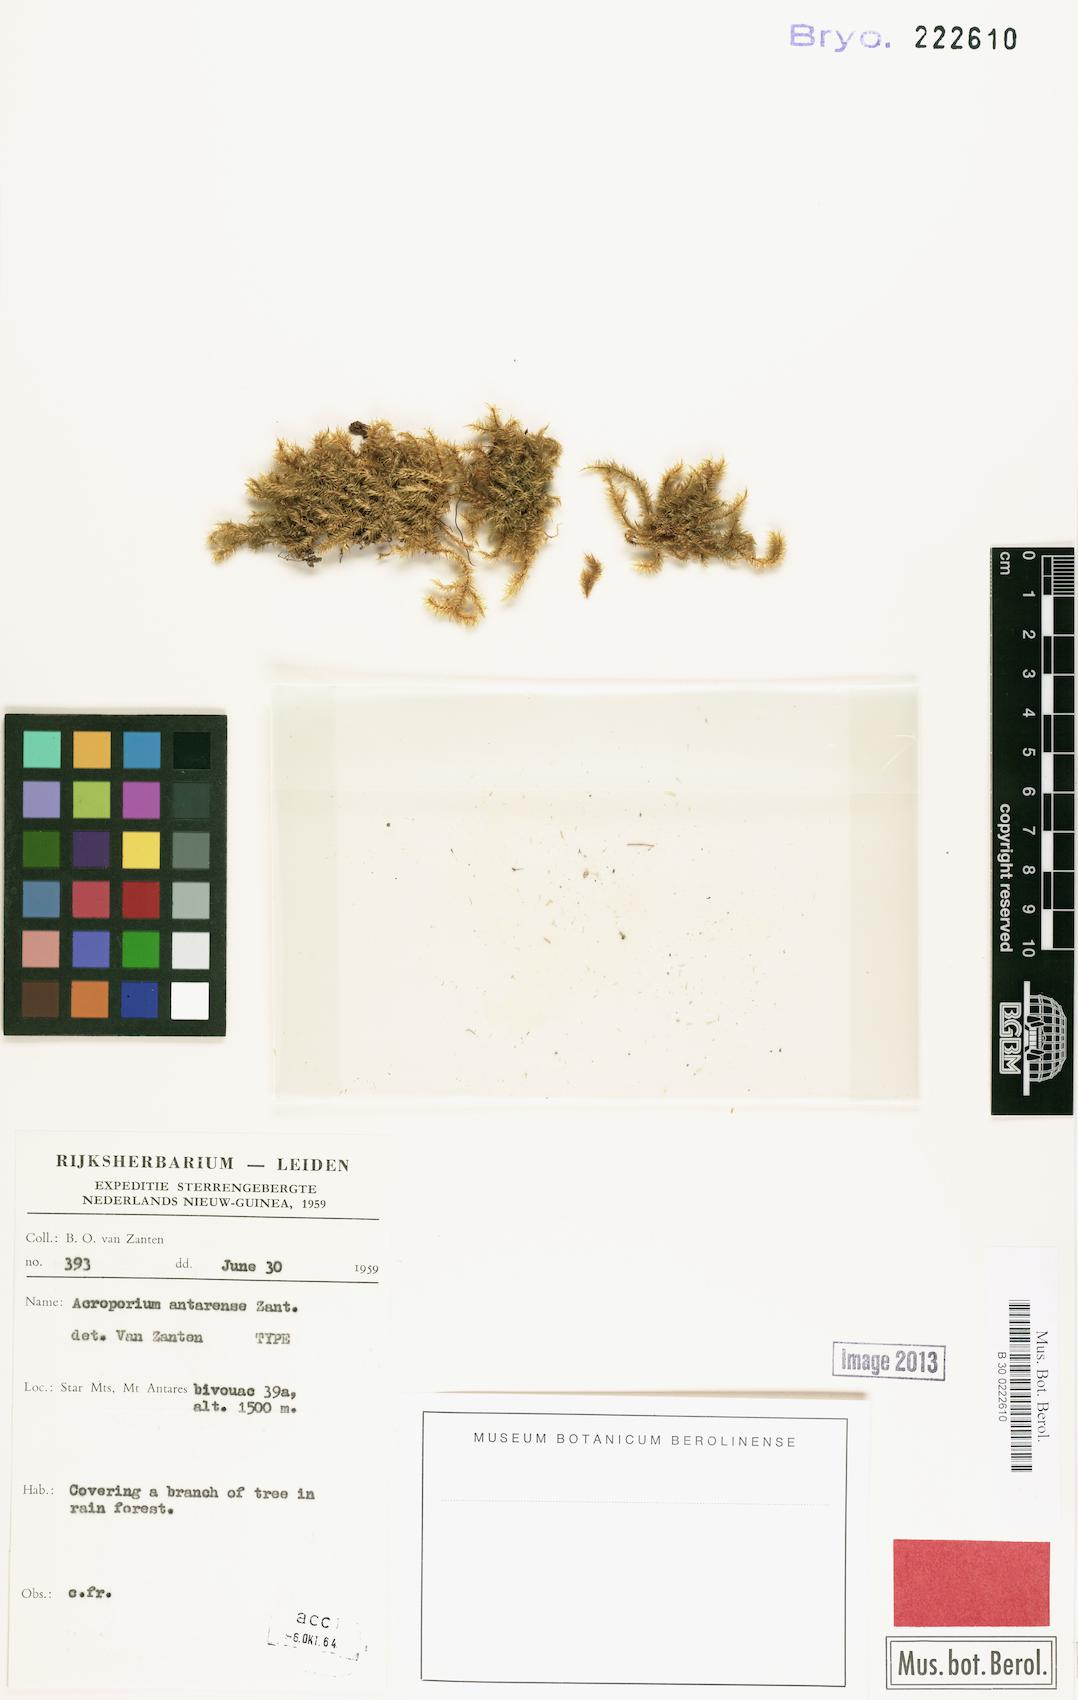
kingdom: Plantae
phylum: Bryophyta
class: Bryopsida
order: Hypnales
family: Sematophyllaceae
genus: Acroporium
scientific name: Acroporium strepsiphyllum
